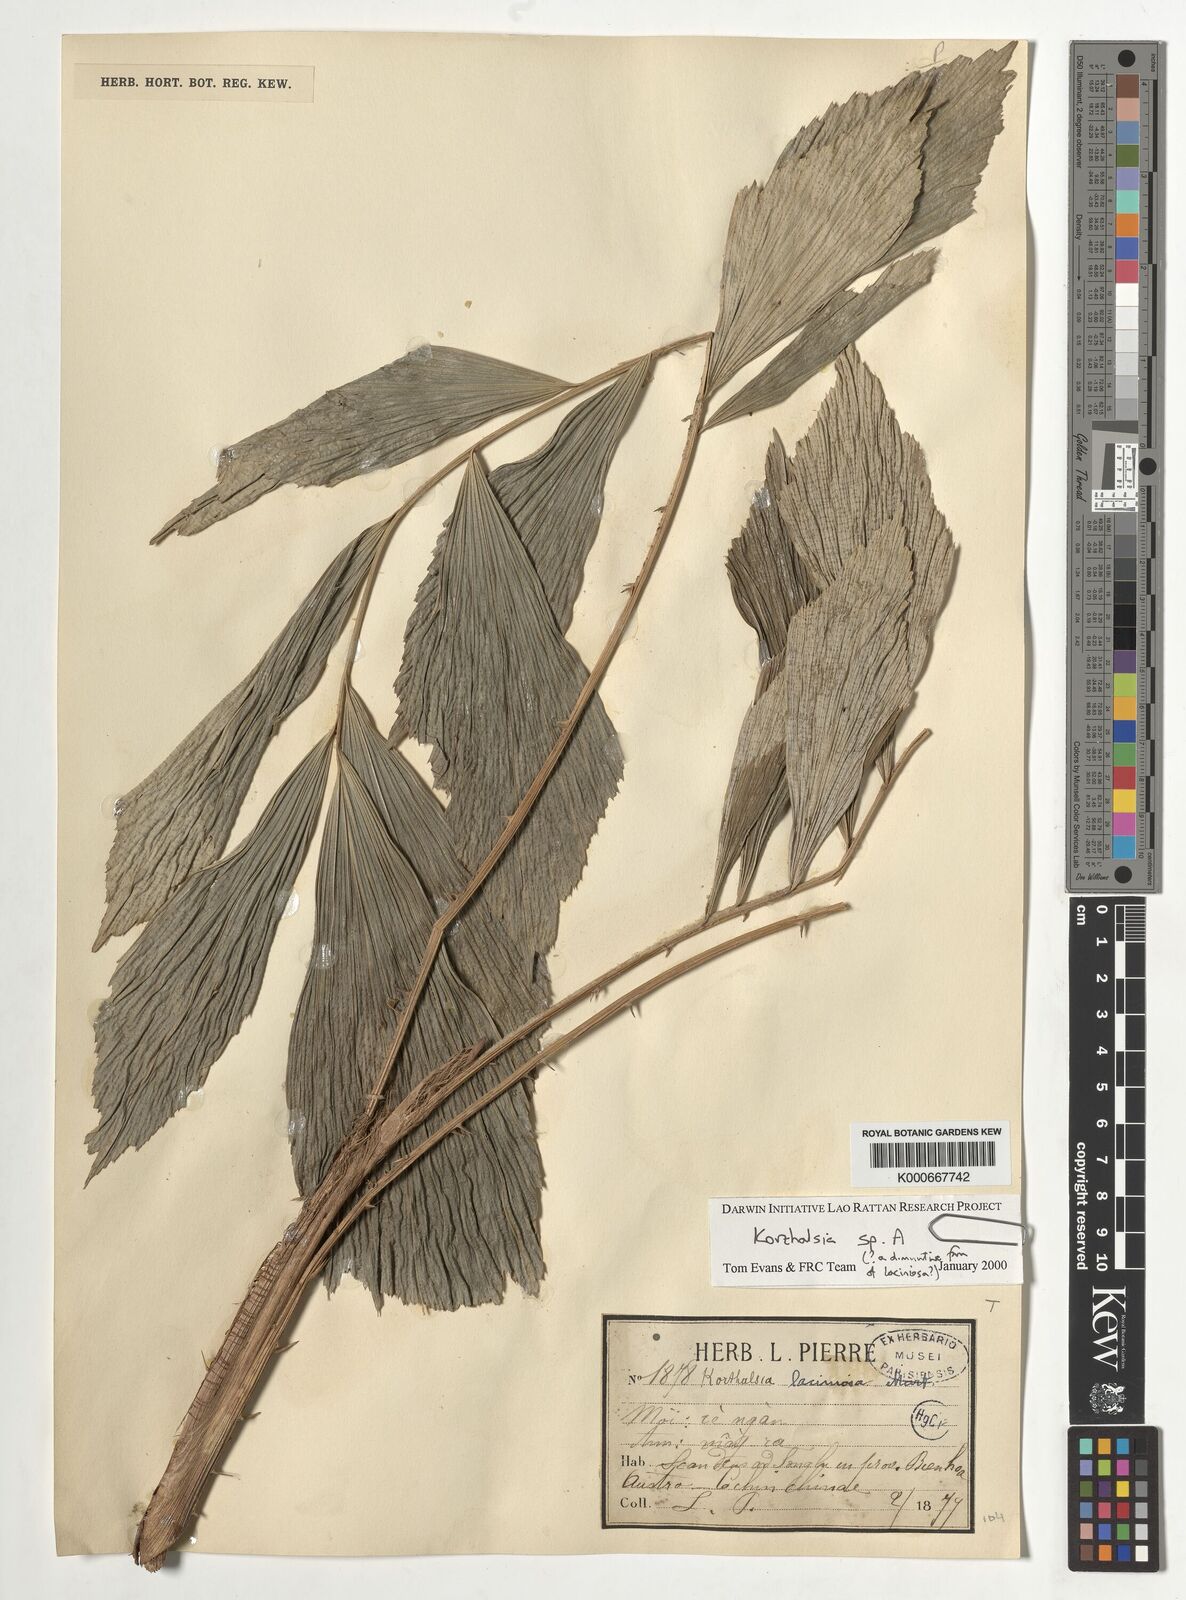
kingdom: Plantae
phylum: Tracheophyta
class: Liliopsida
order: Arecales
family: Arecaceae
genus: Korthalsia
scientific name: Korthalsia
